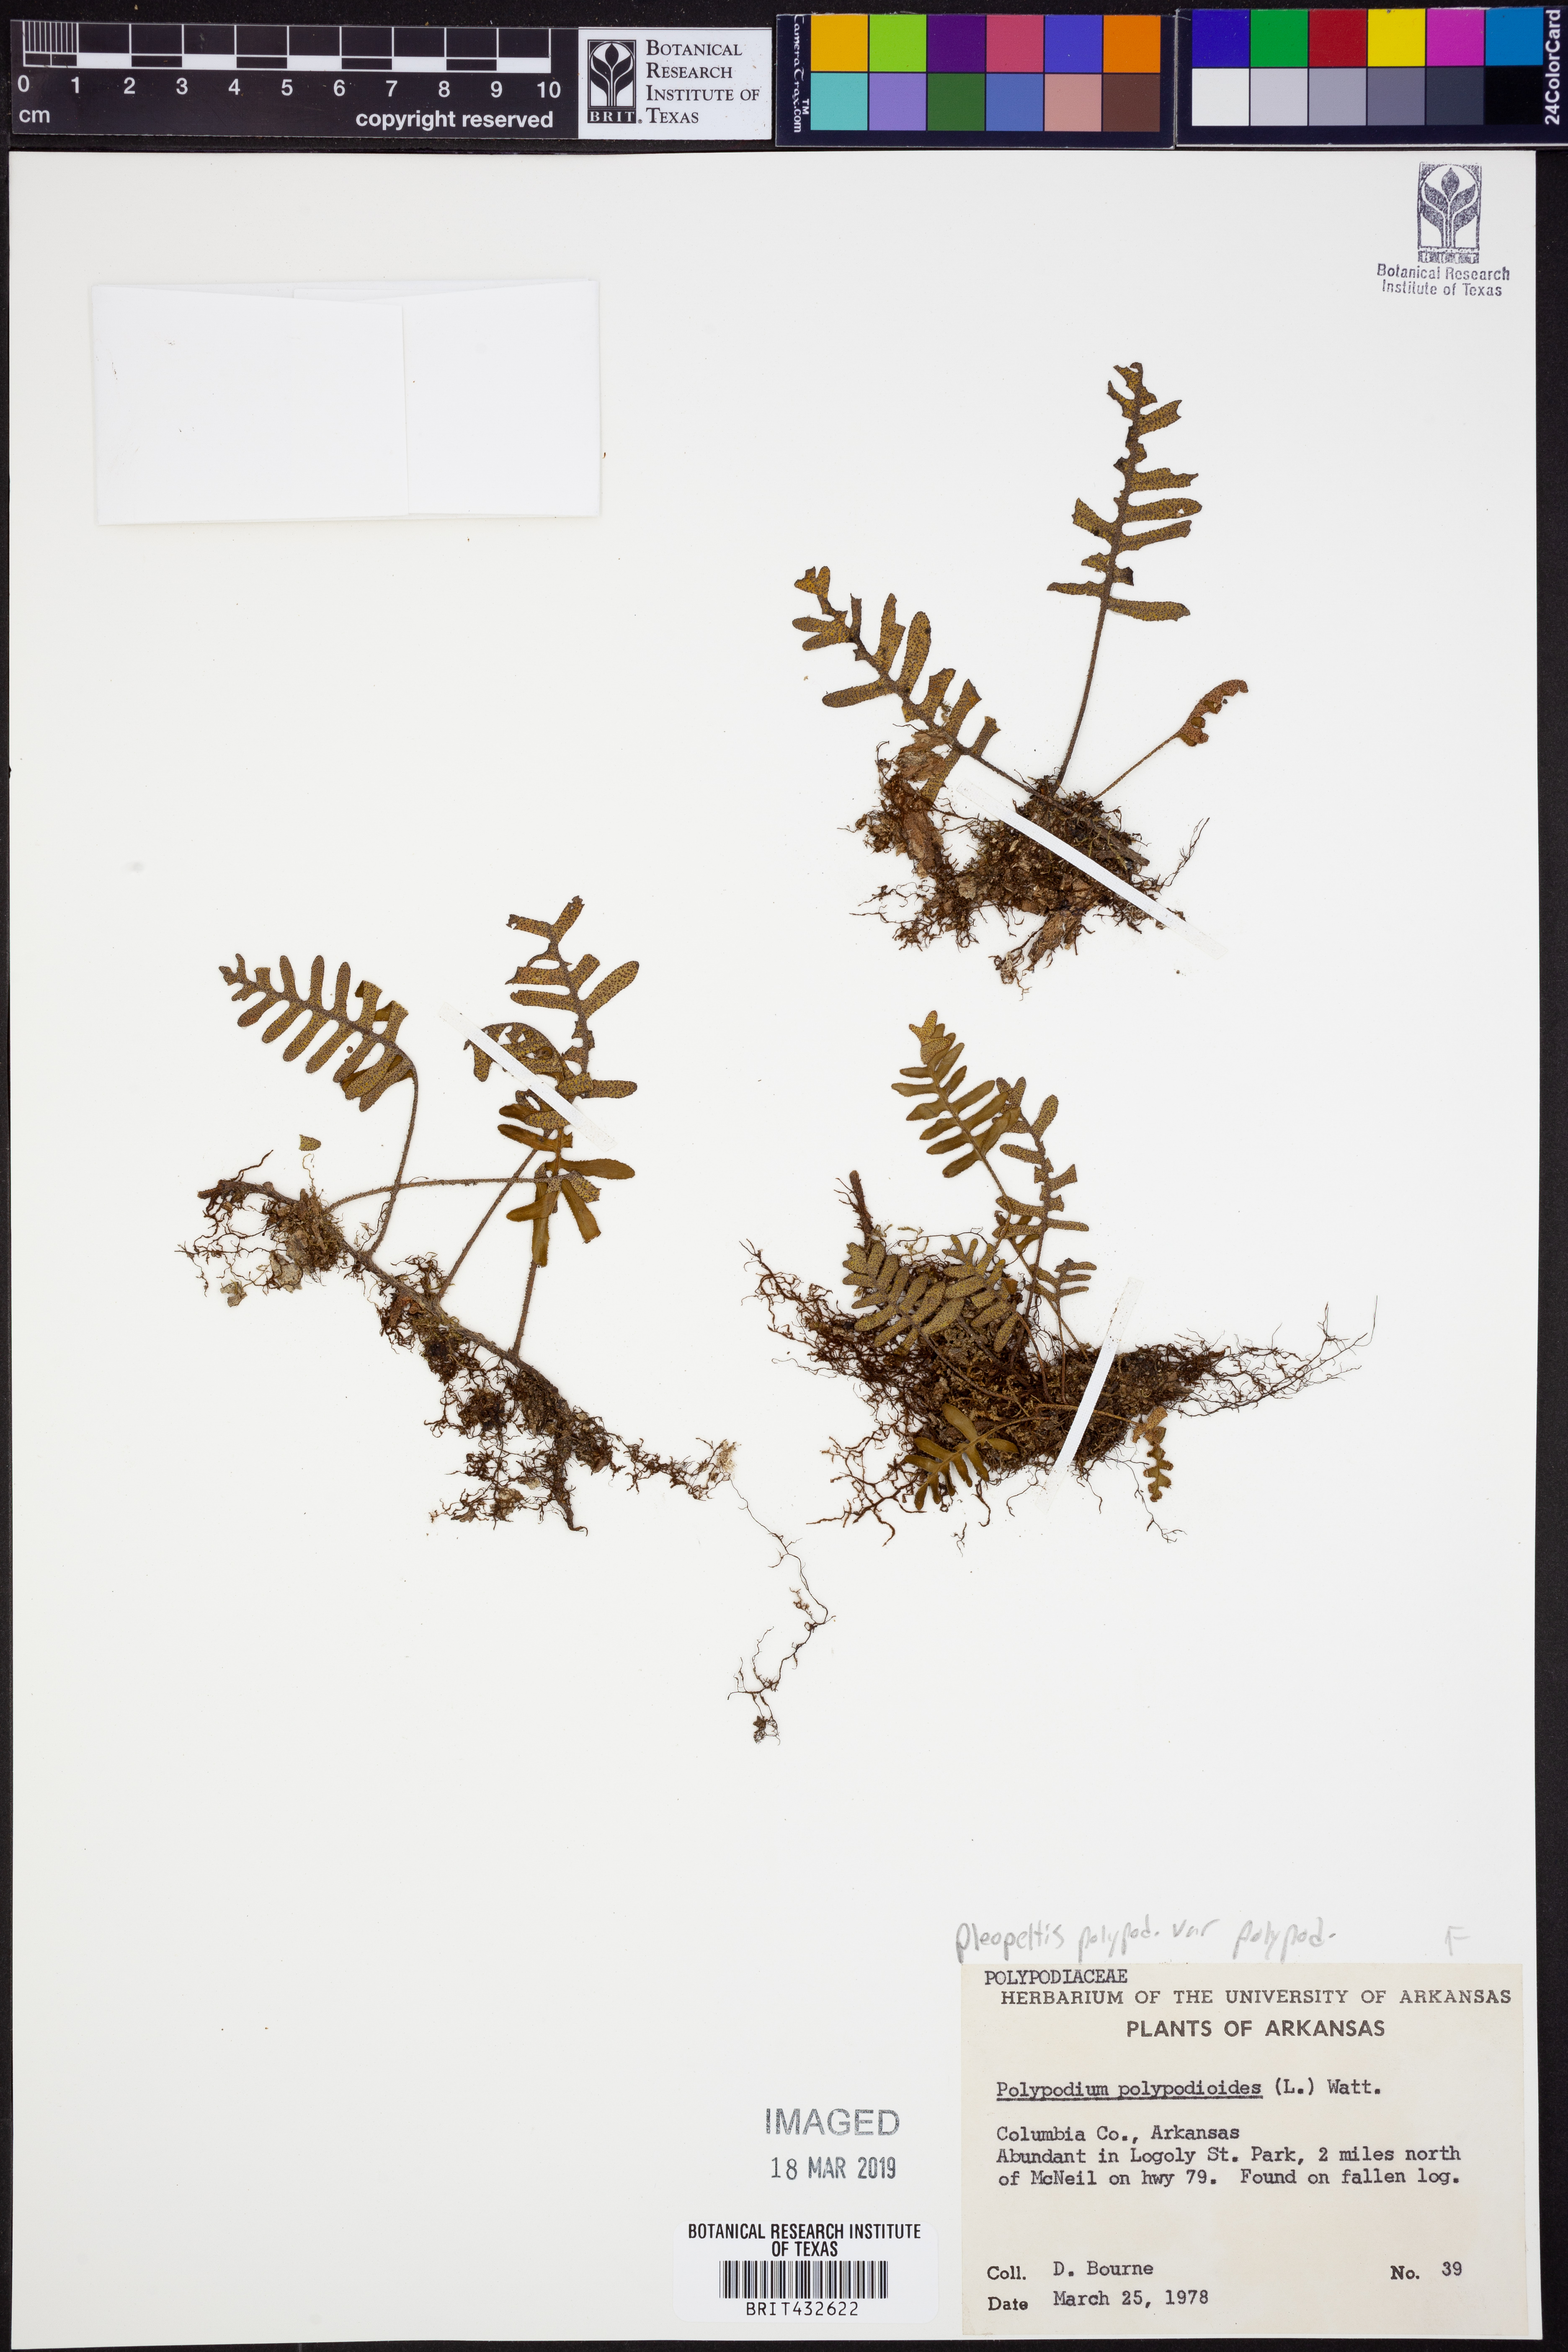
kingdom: Plantae
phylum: Tracheophyta
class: Polypodiopsida
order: Polypodiales
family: Polypodiaceae
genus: Pleopeltis
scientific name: Pleopeltis polypodioides
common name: Resurrection fern
